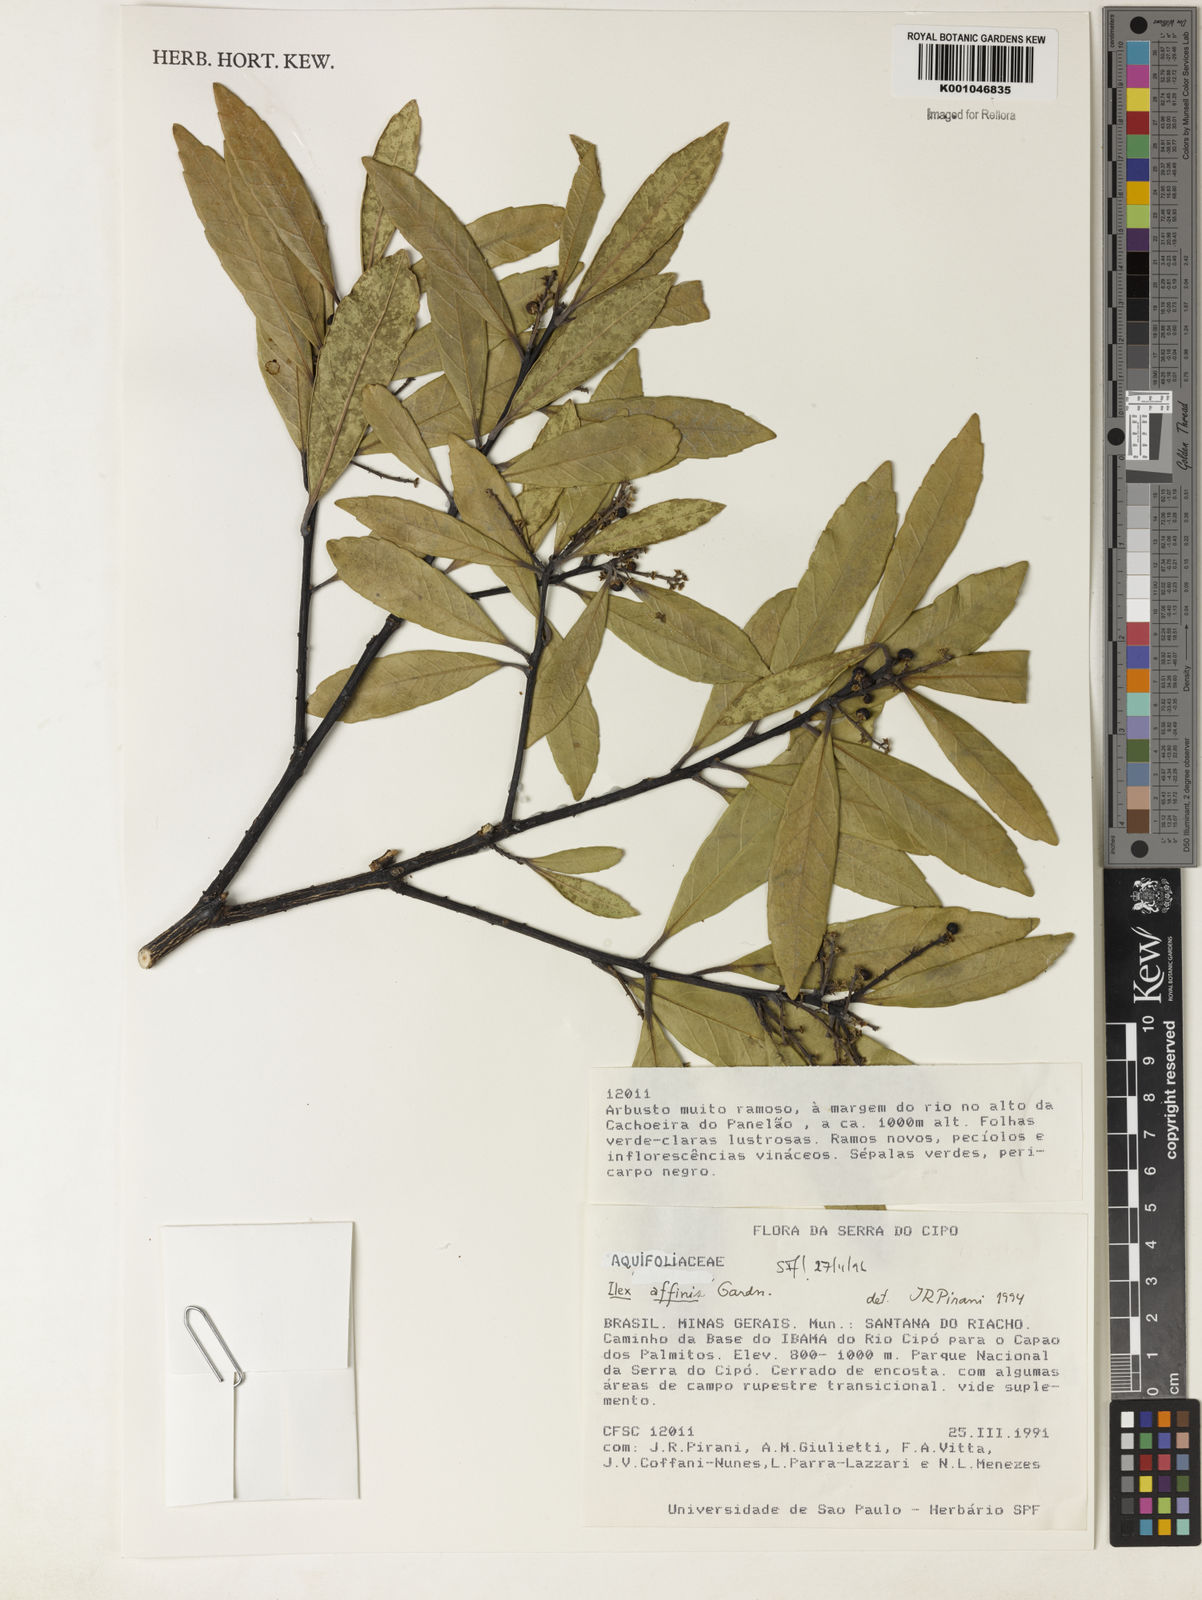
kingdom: Plantae
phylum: Tracheophyta
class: Magnoliopsida
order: Aquifoliales
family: Aquifoliaceae
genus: Ilex
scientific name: Ilex affinis
